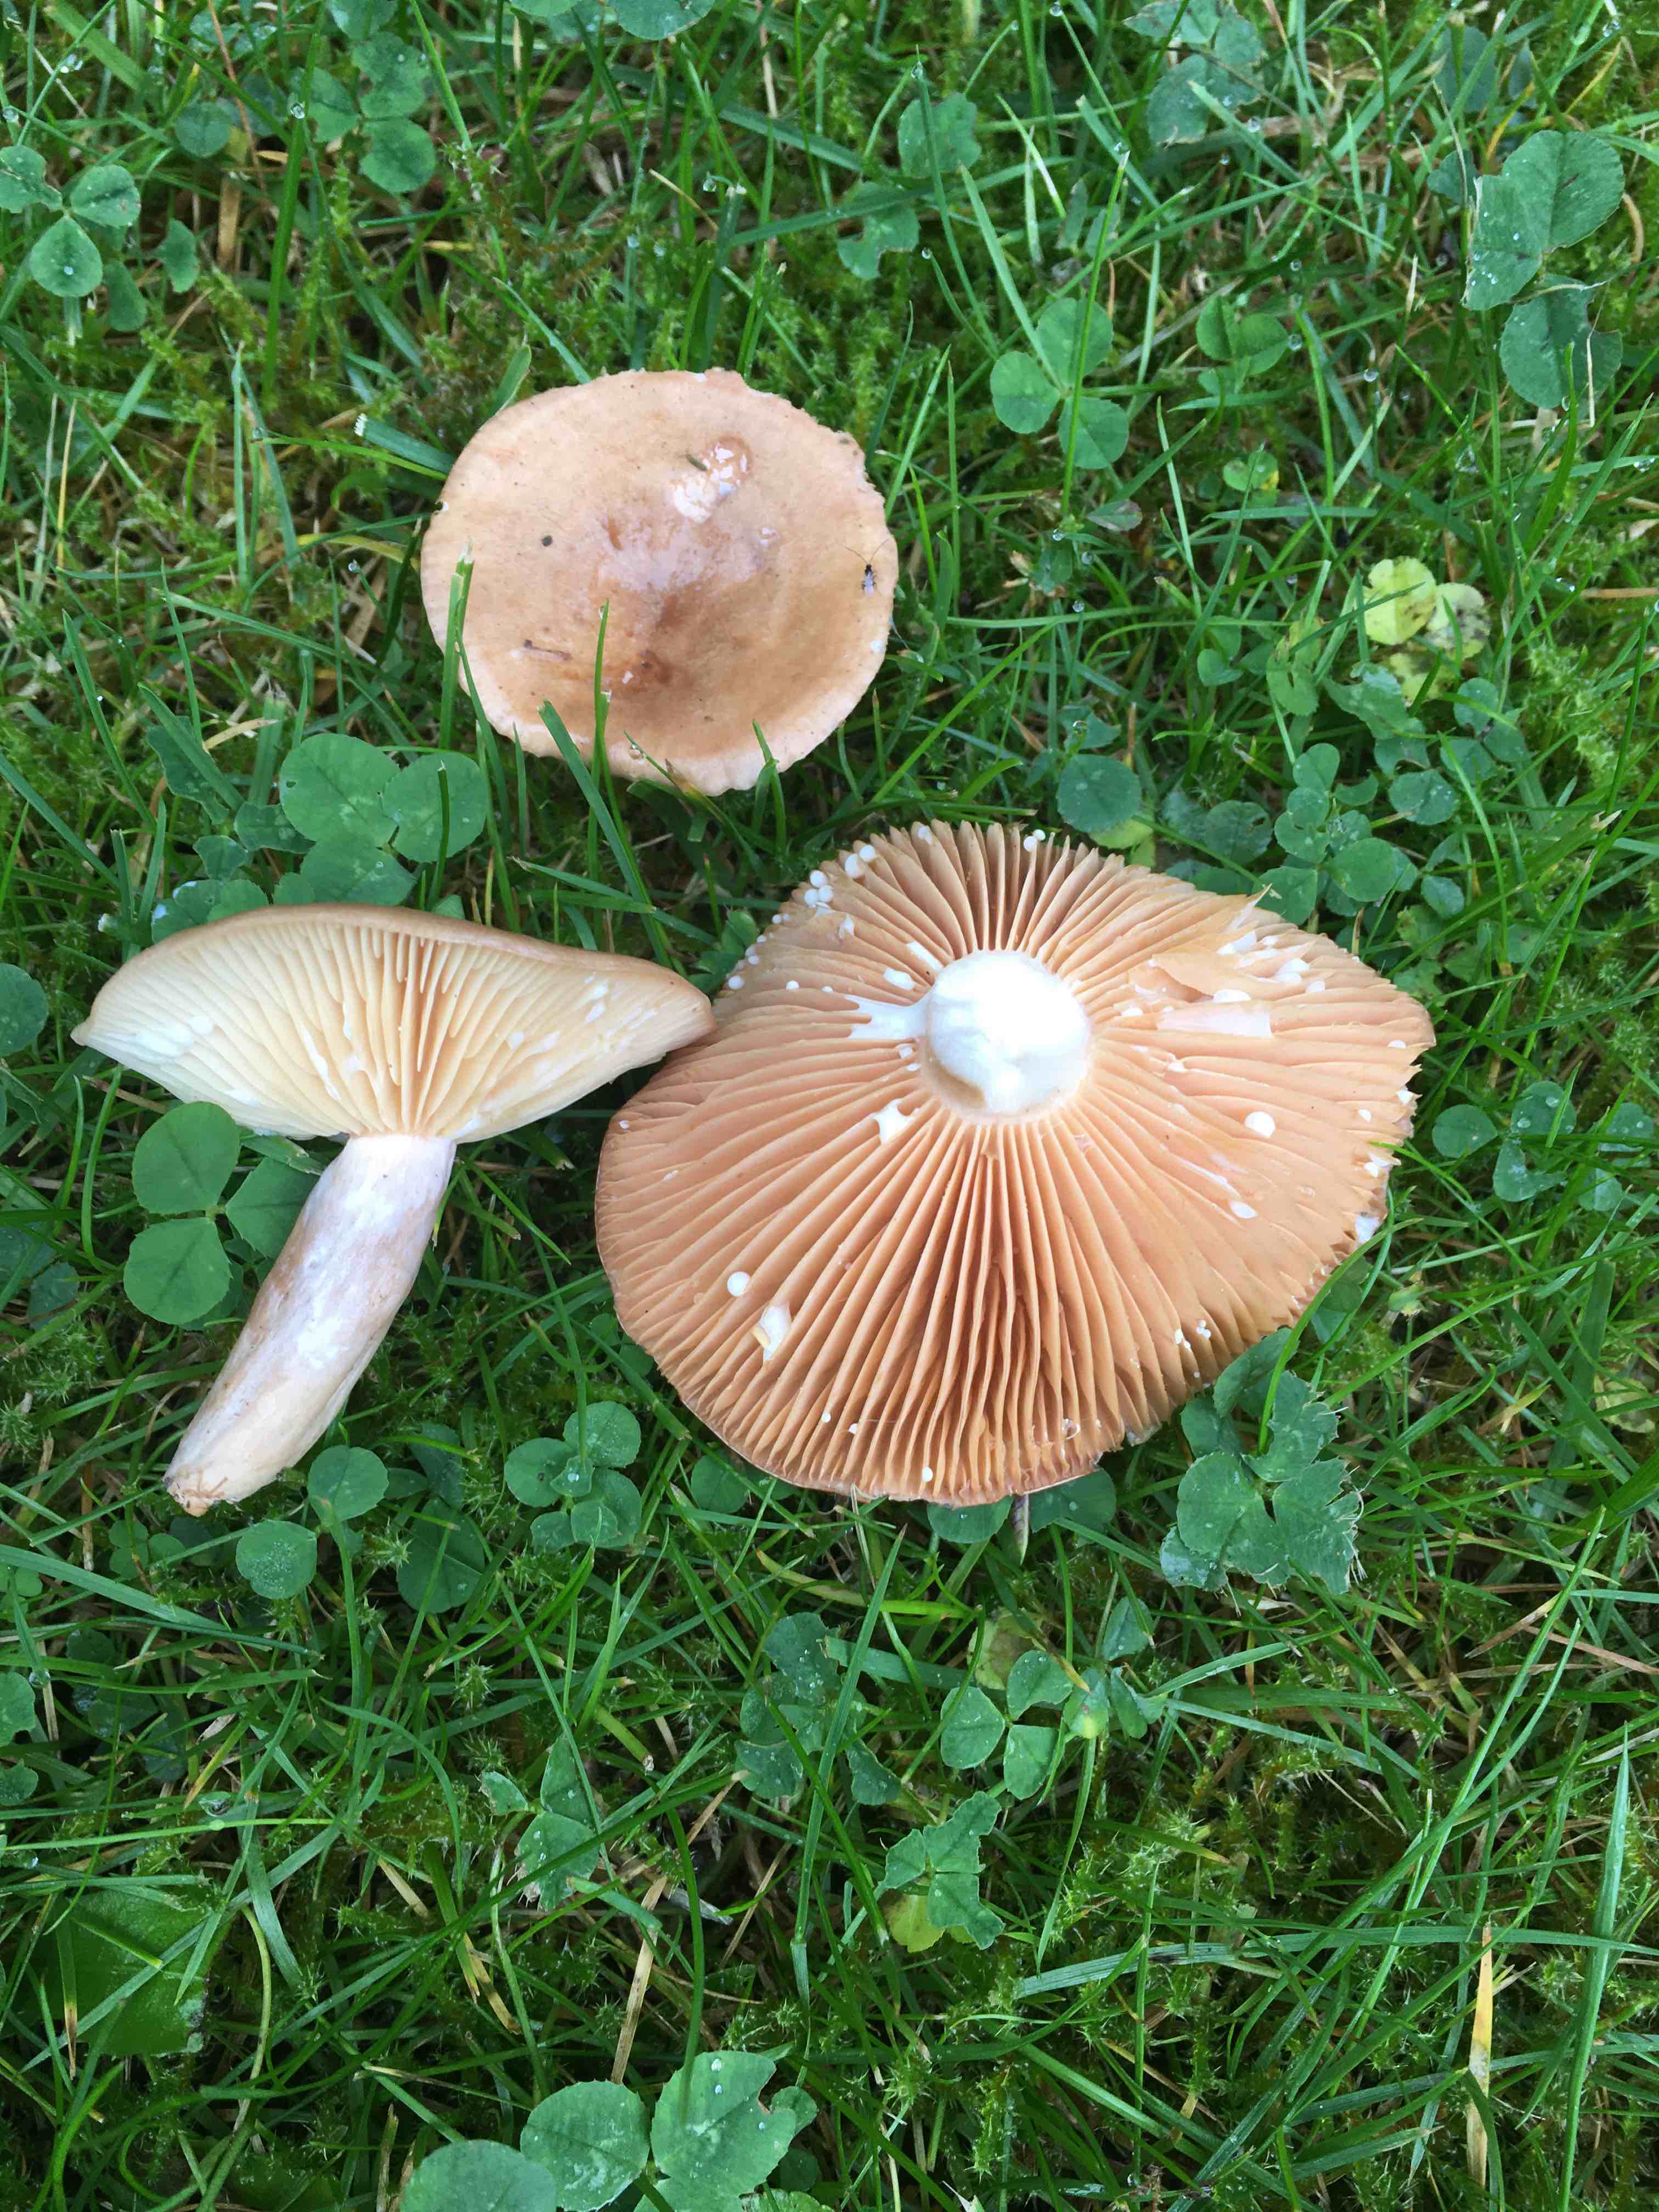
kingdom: Fungi
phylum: Basidiomycota
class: Agaricomycetes
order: Russulales
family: Russulaceae
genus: Lactarius
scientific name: Lactarius pyrogalus
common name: hassel-mælkehat
